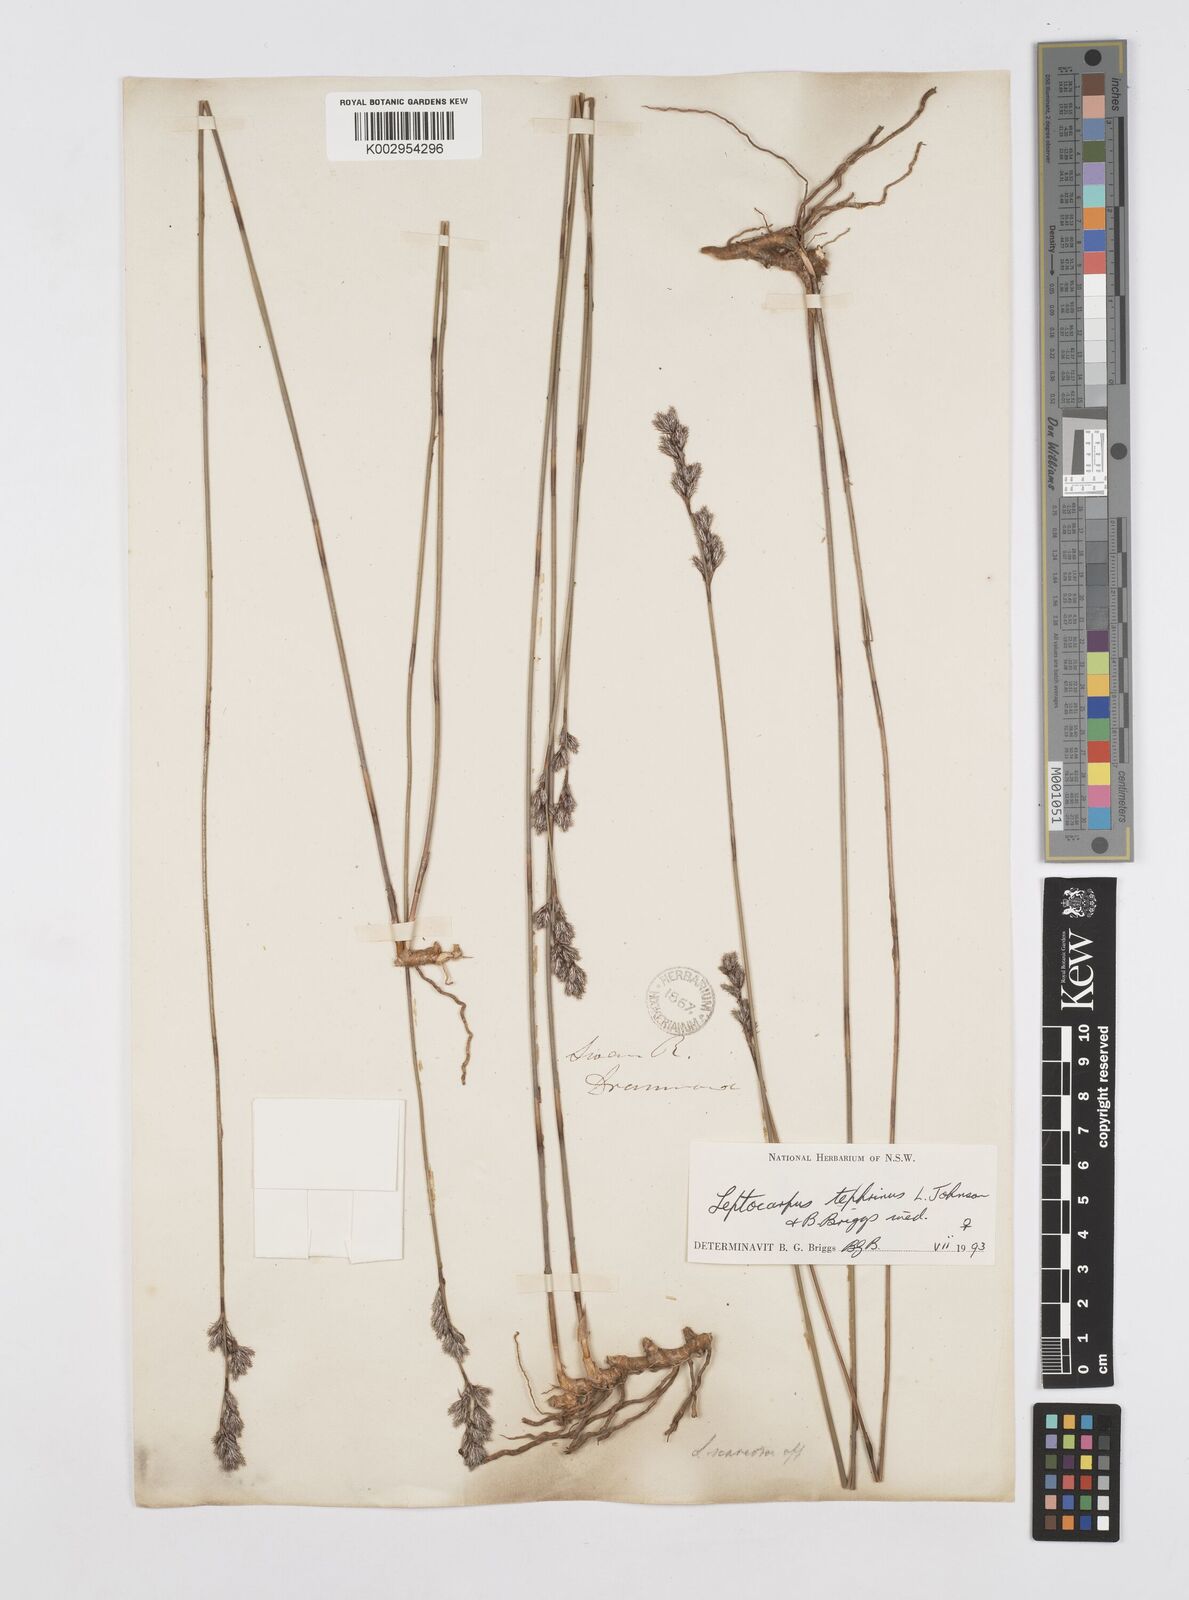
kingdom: Plantae
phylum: Tracheophyta
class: Liliopsida
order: Poales
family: Restionaceae
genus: Leptocarpus
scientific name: Leptocarpus tephrinus
